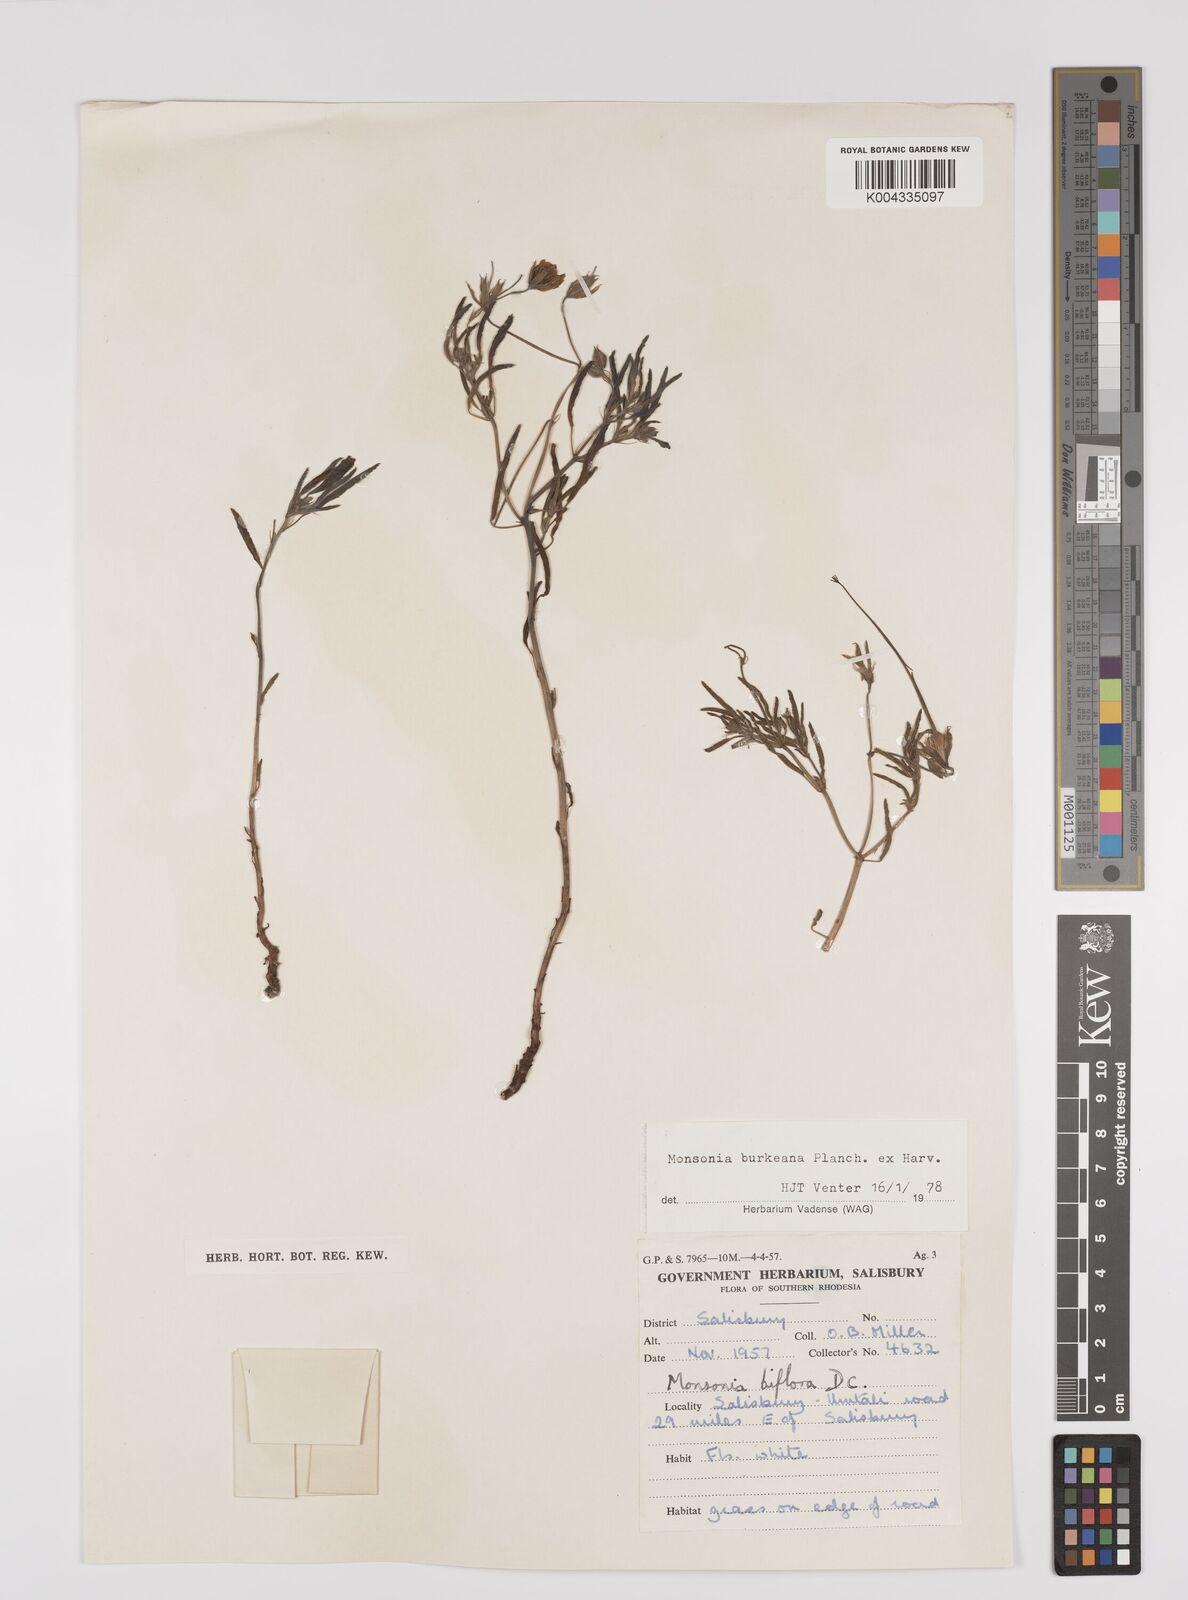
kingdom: Plantae
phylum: Tracheophyta
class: Magnoliopsida
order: Geraniales
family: Geraniaceae
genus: Monsonia
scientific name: Monsonia biflora
